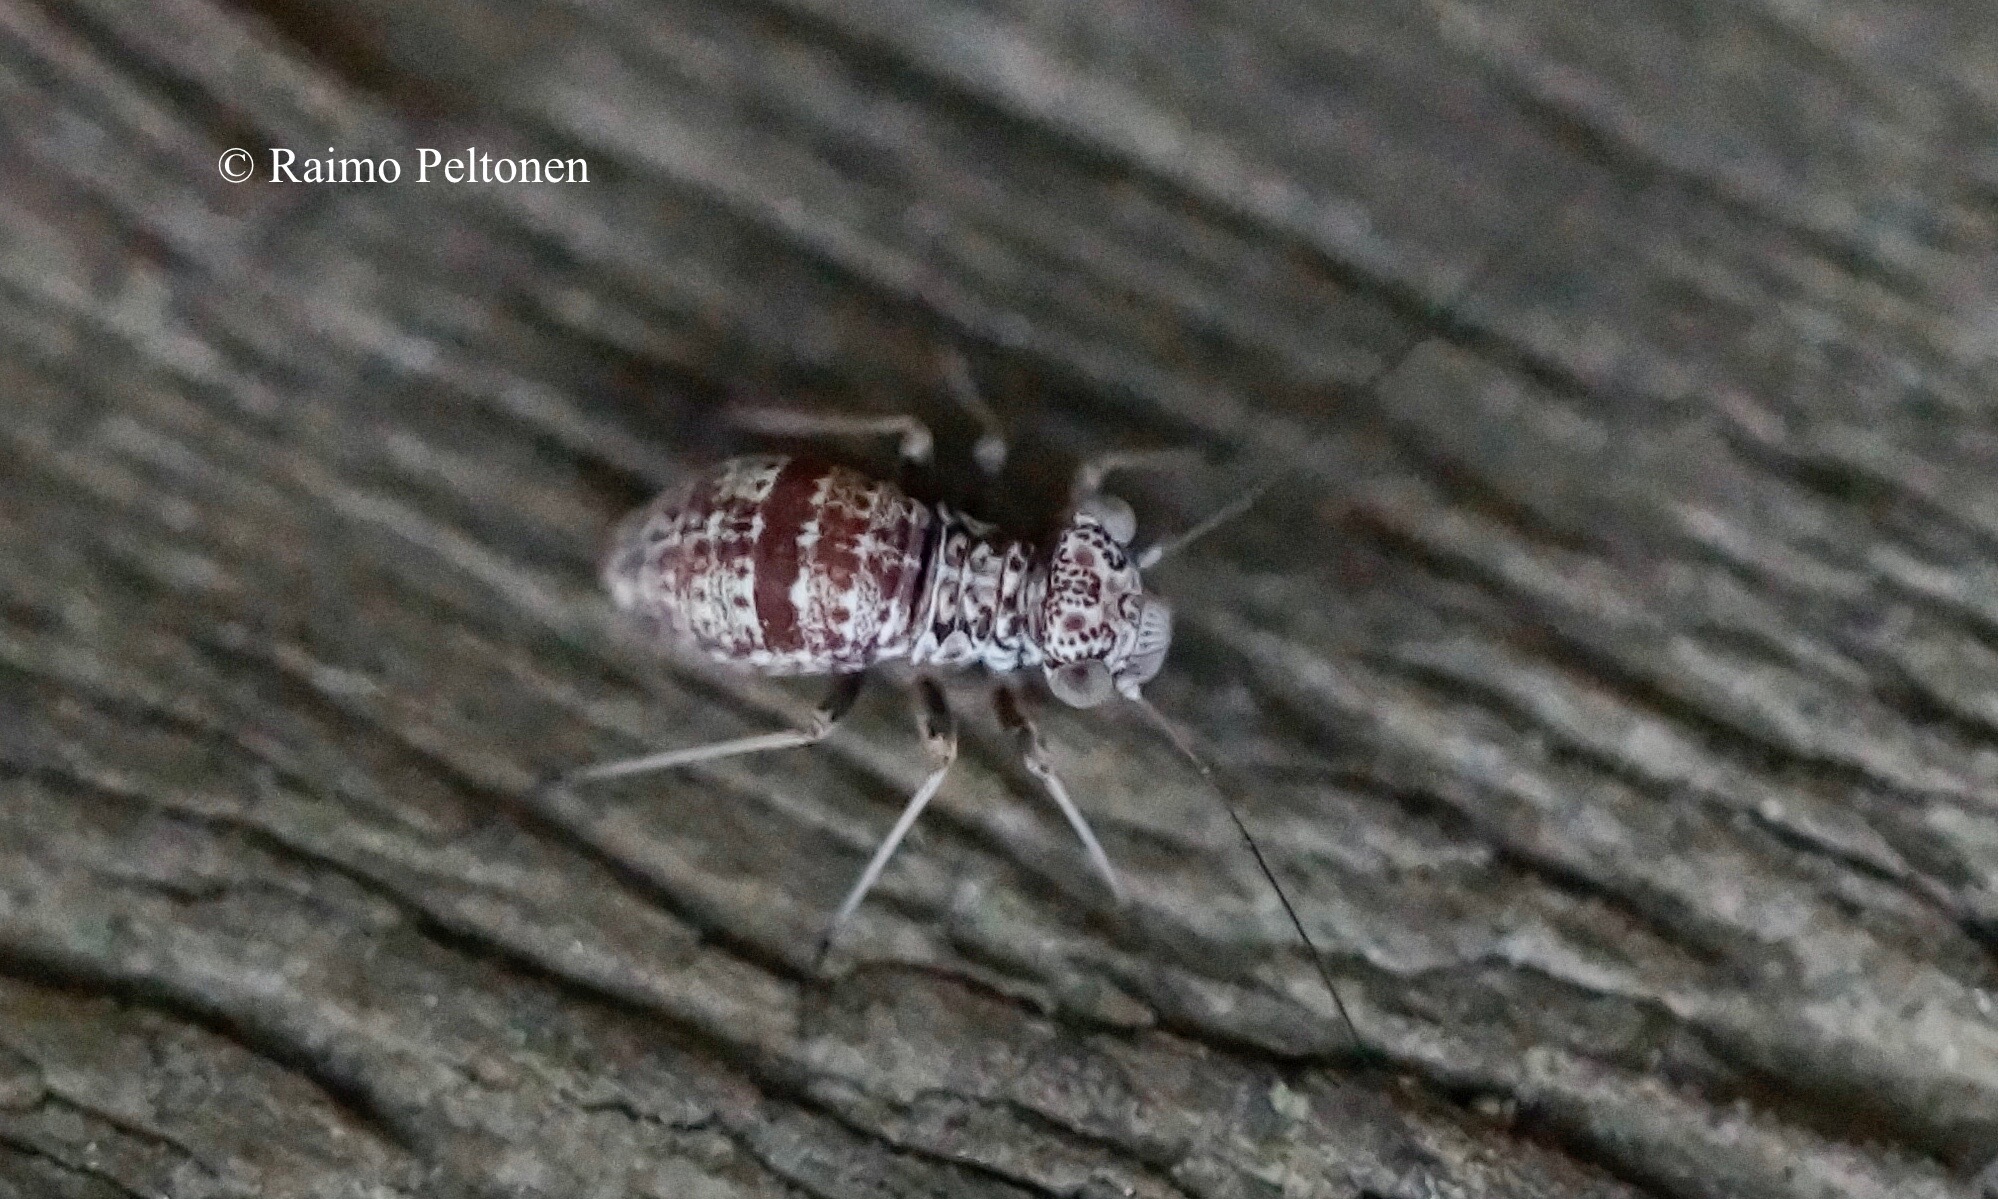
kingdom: Animalia
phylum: Arthropoda
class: Insecta
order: Psocodea
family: Mesopsocidae
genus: Mesopsocus
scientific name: Mesopsocus unipunctatus
